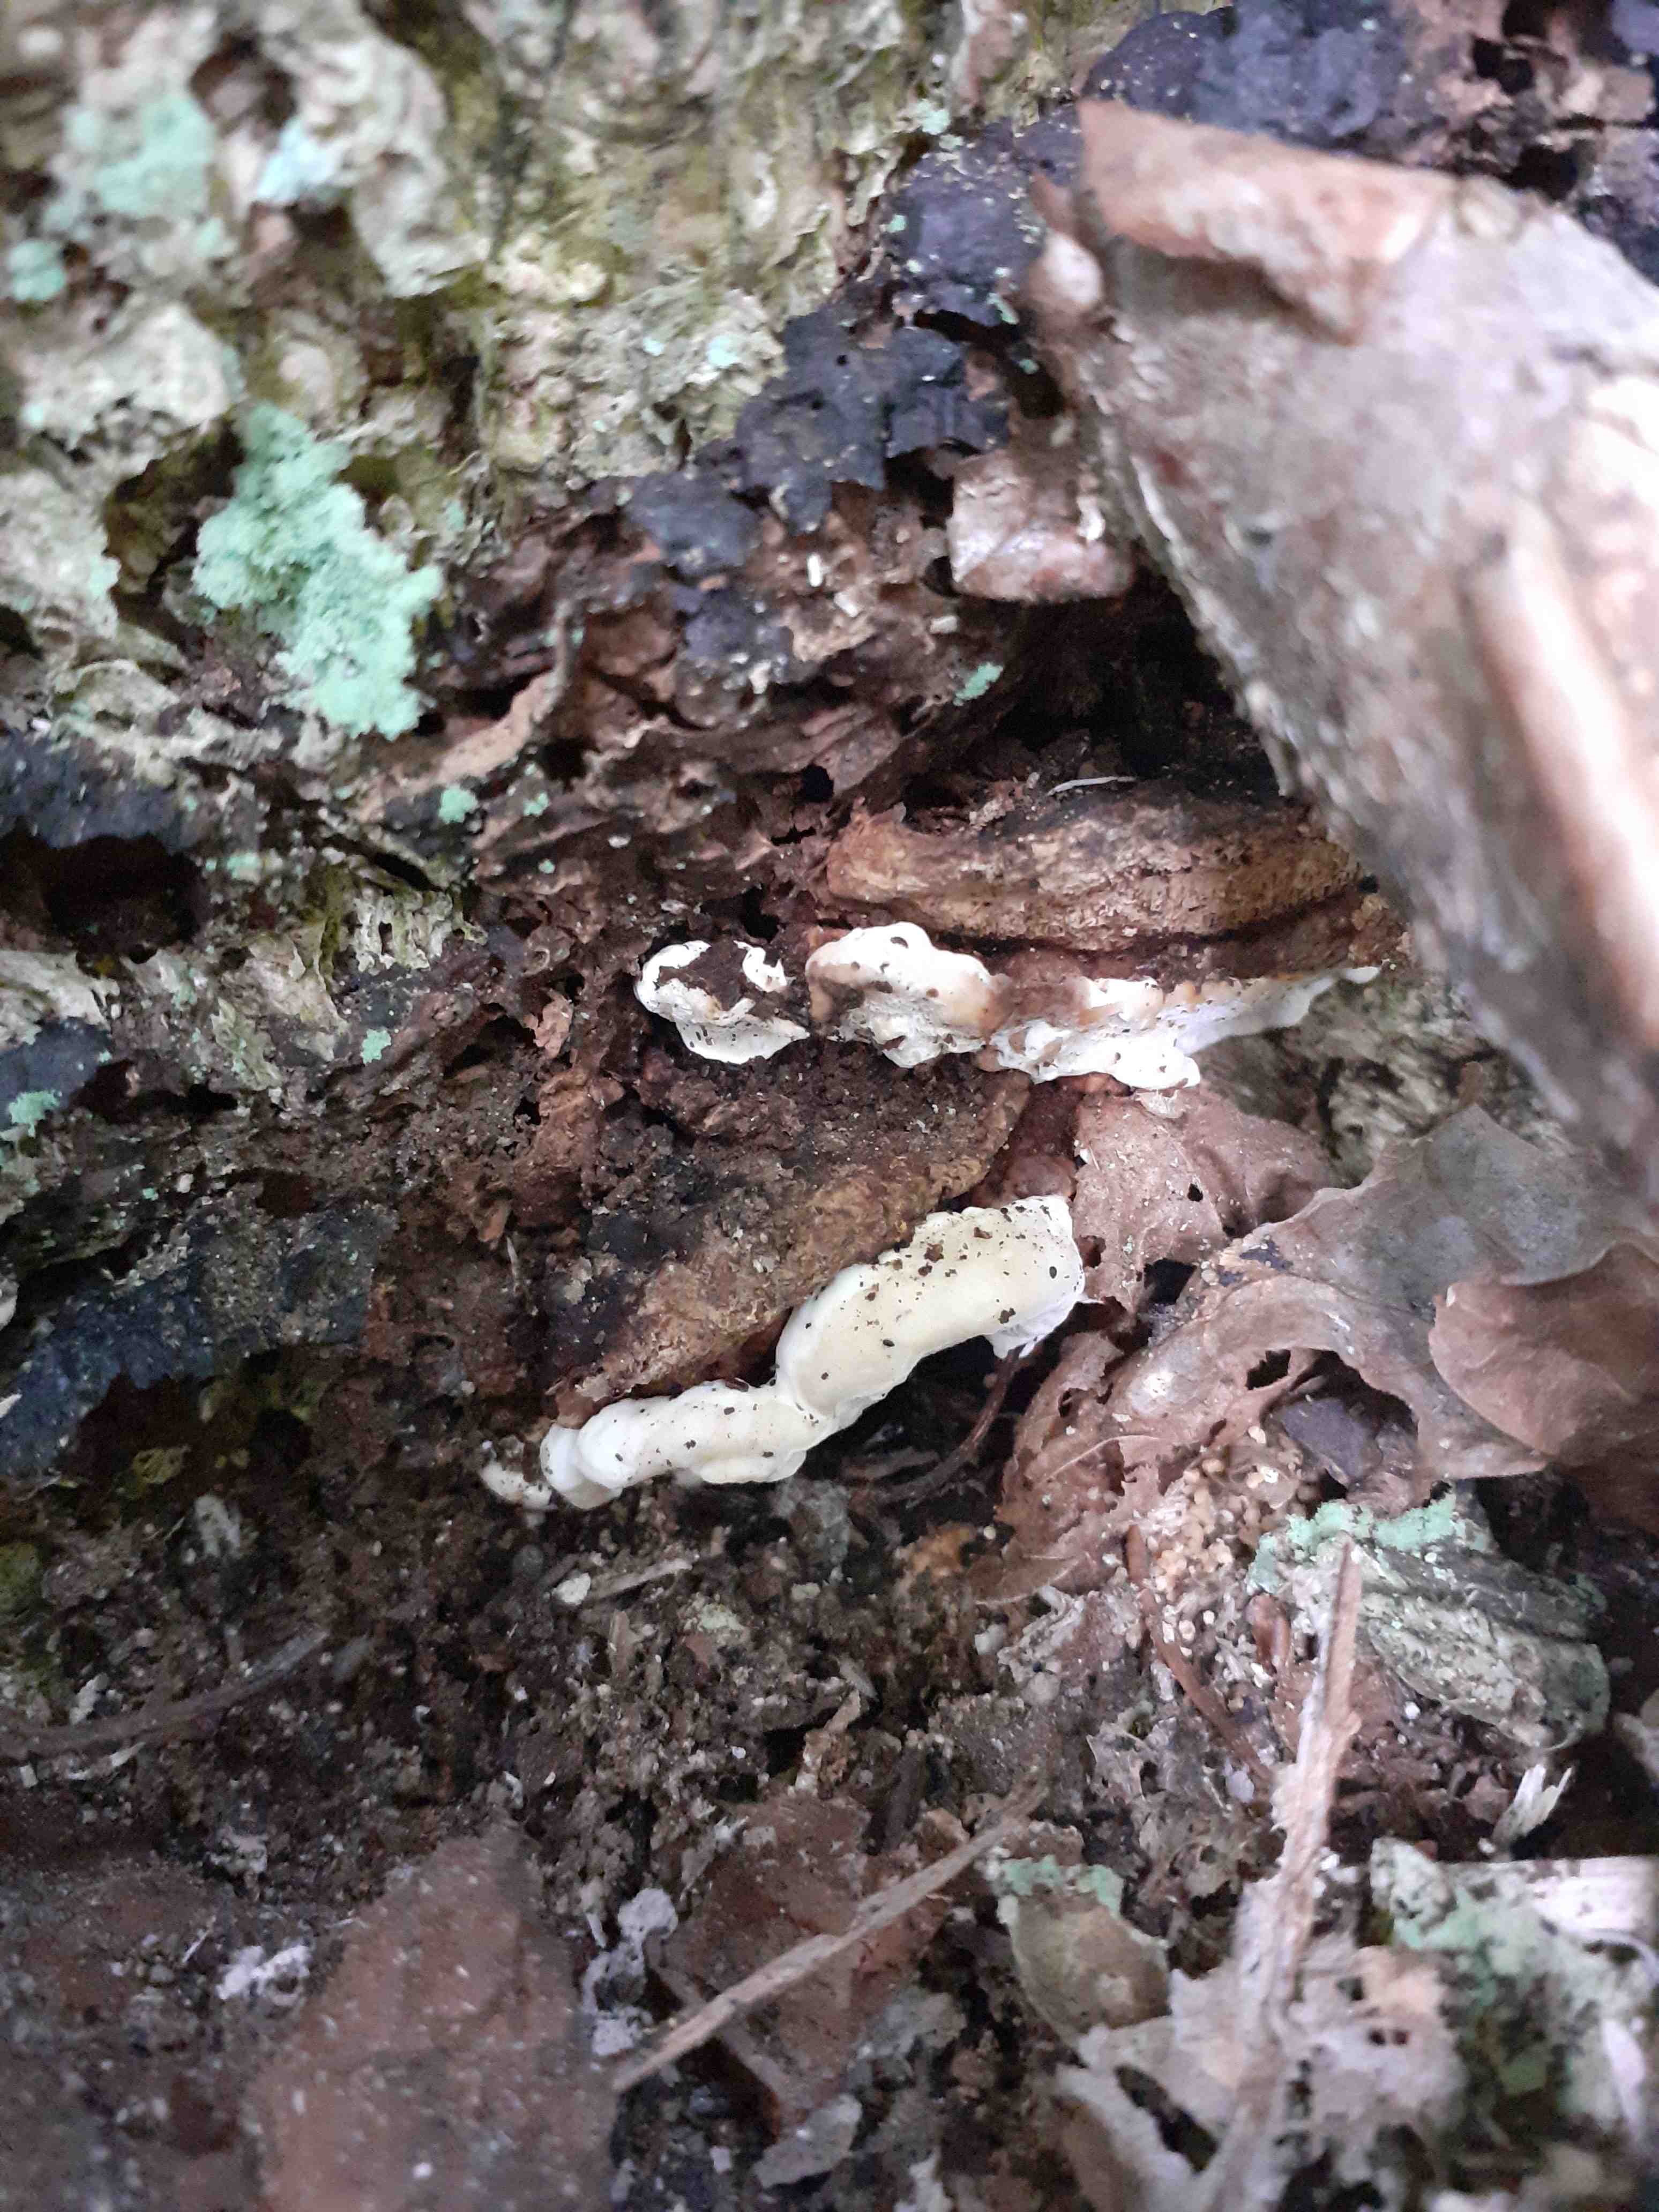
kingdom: Fungi
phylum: Basidiomycota
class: Agaricomycetes
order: Russulales
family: Bondarzewiaceae
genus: Heterobasidion
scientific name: Heterobasidion annosum
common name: almindelig rodfordærver
